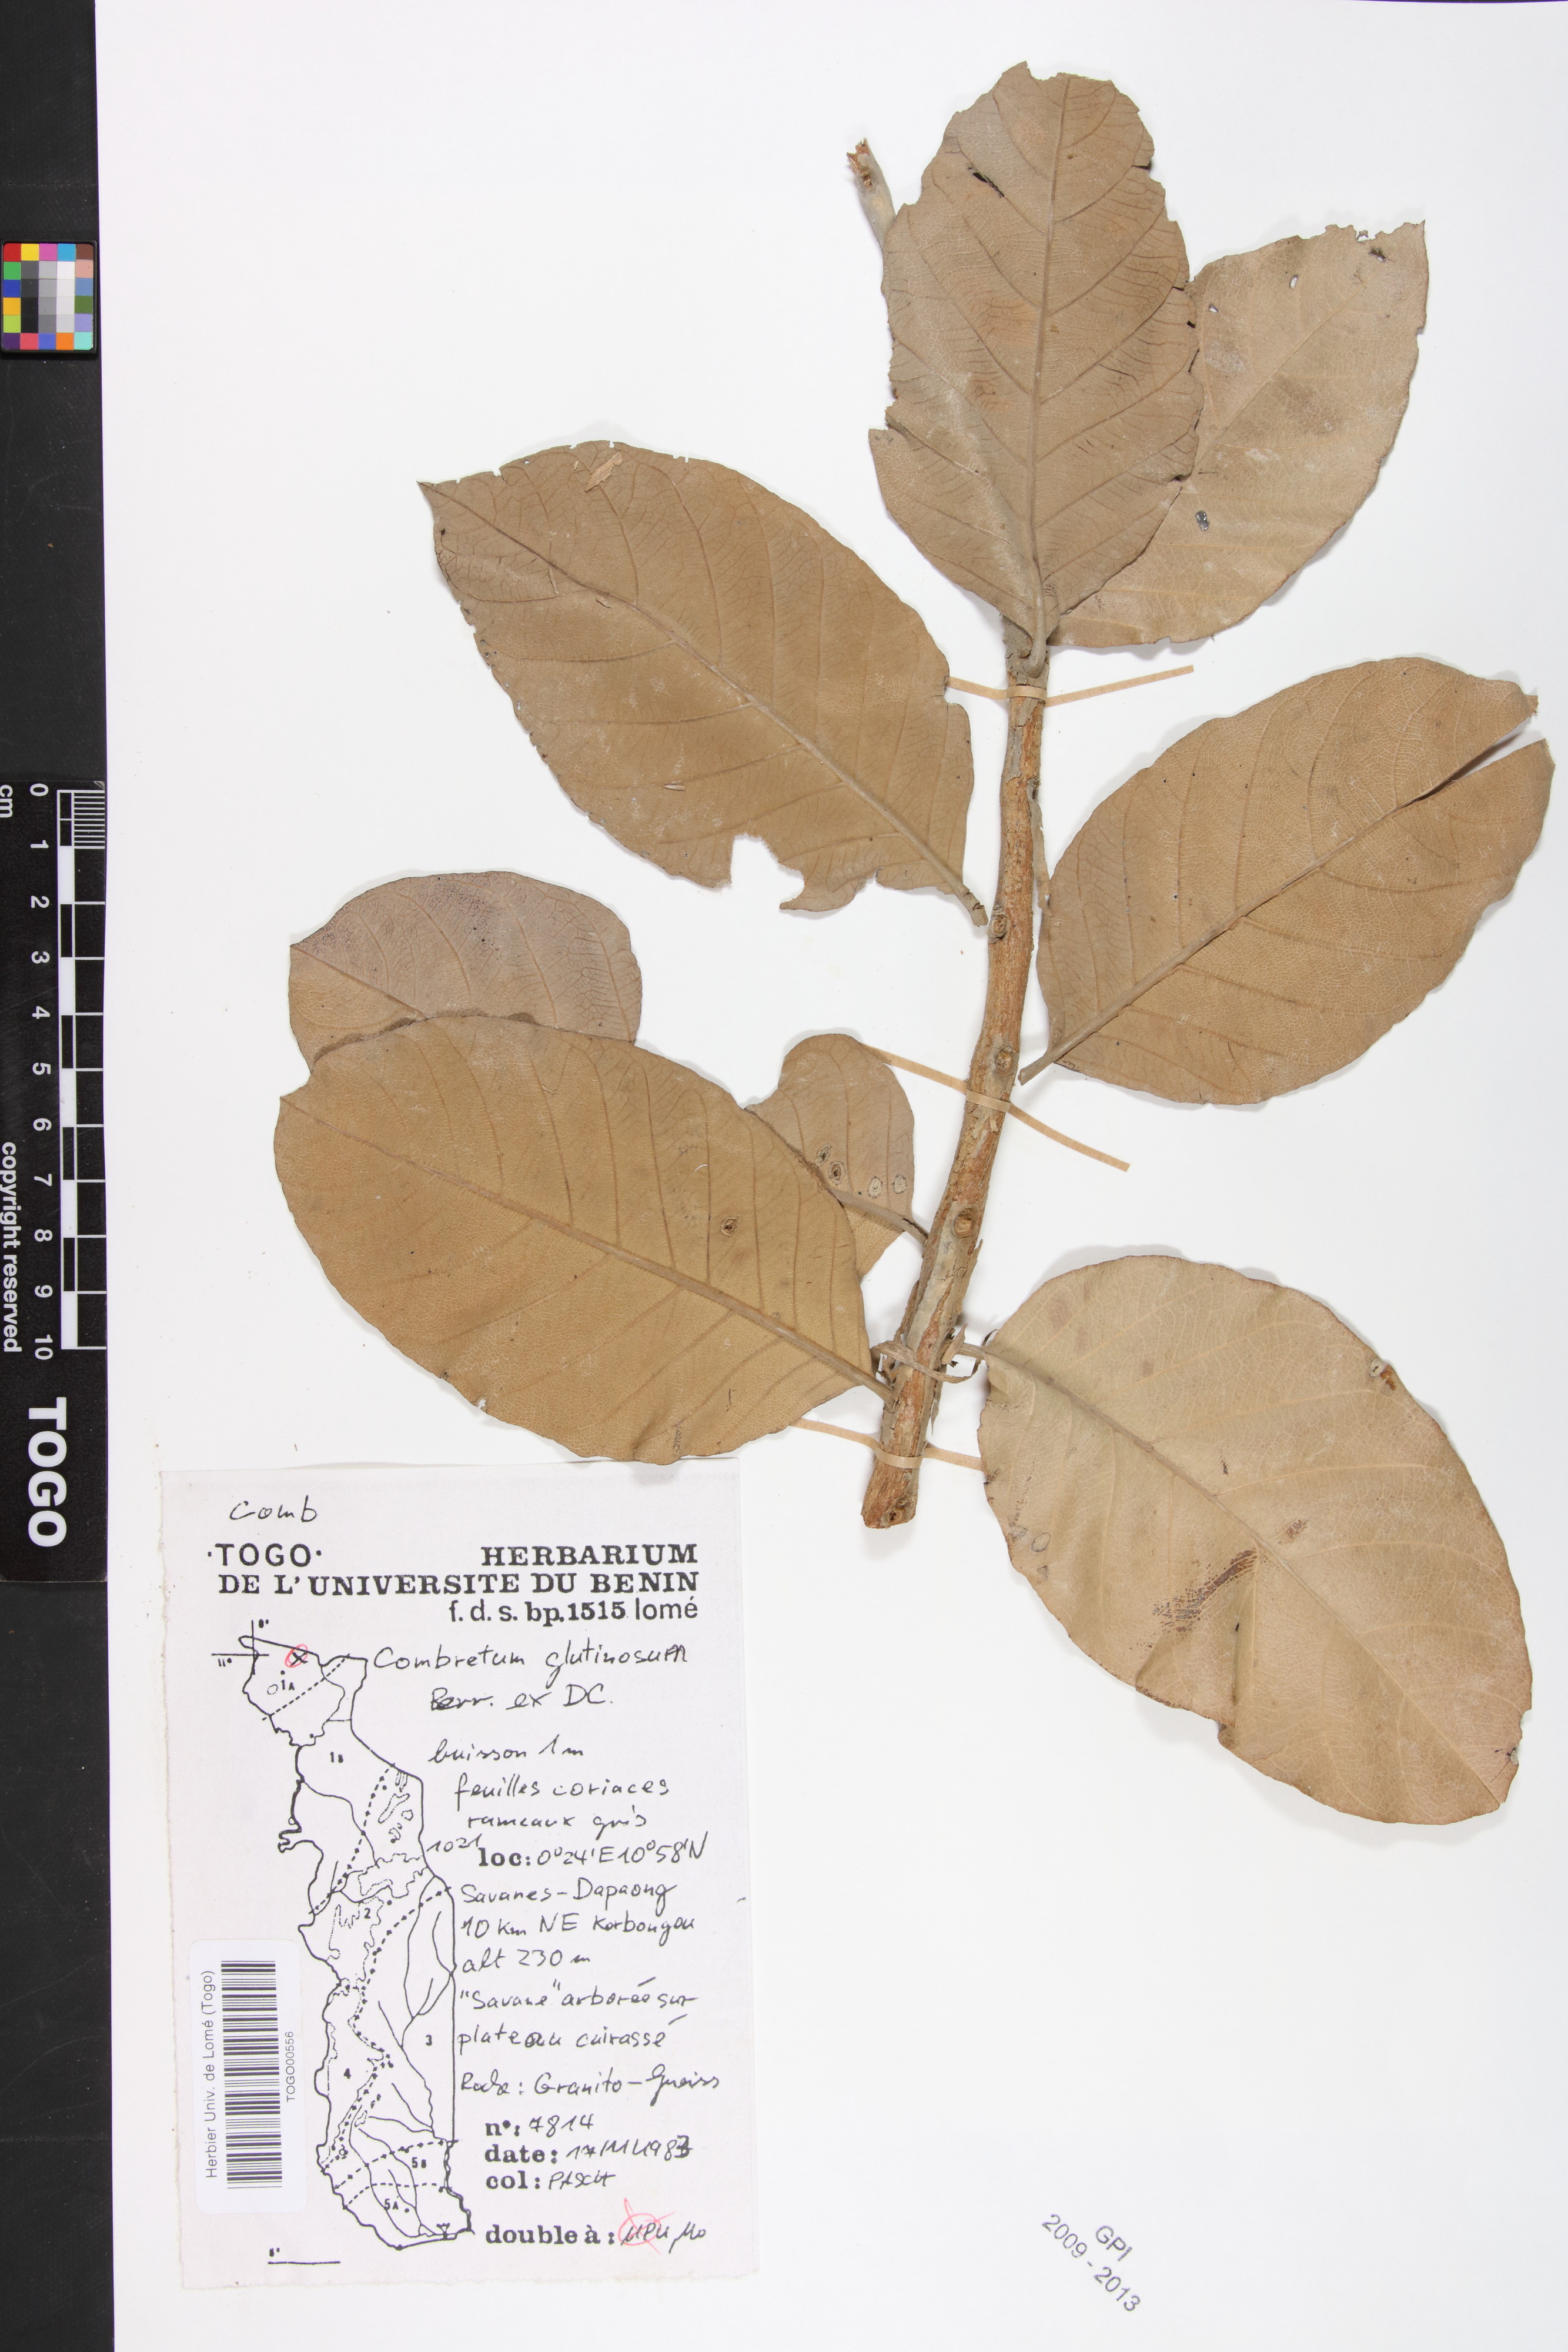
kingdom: Plantae
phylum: Tracheophyta
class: Magnoliopsida
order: Myrtales
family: Combretaceae
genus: Combretum
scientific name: Combretum glutinosum
